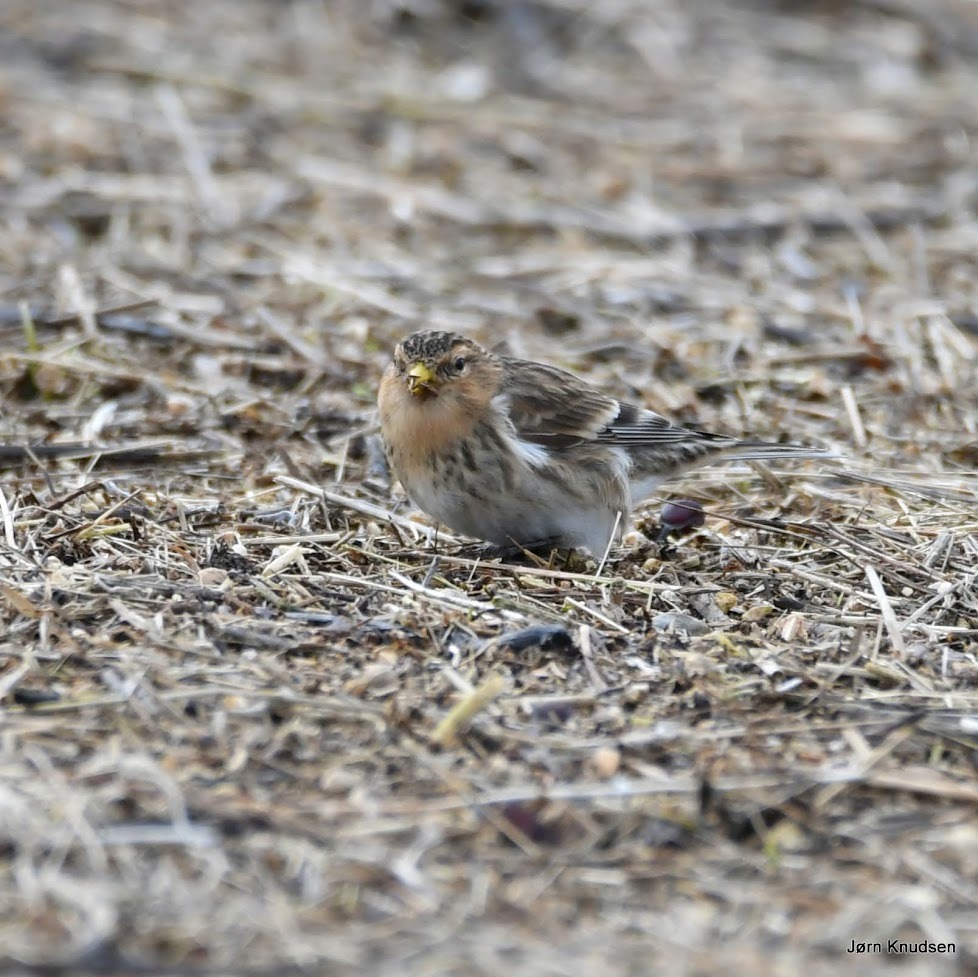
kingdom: Animalia
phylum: Chordata
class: Aves
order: Passeriformes
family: Fringillidae
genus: Linaria
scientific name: Linaria flavirostris
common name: Bjergirisk
